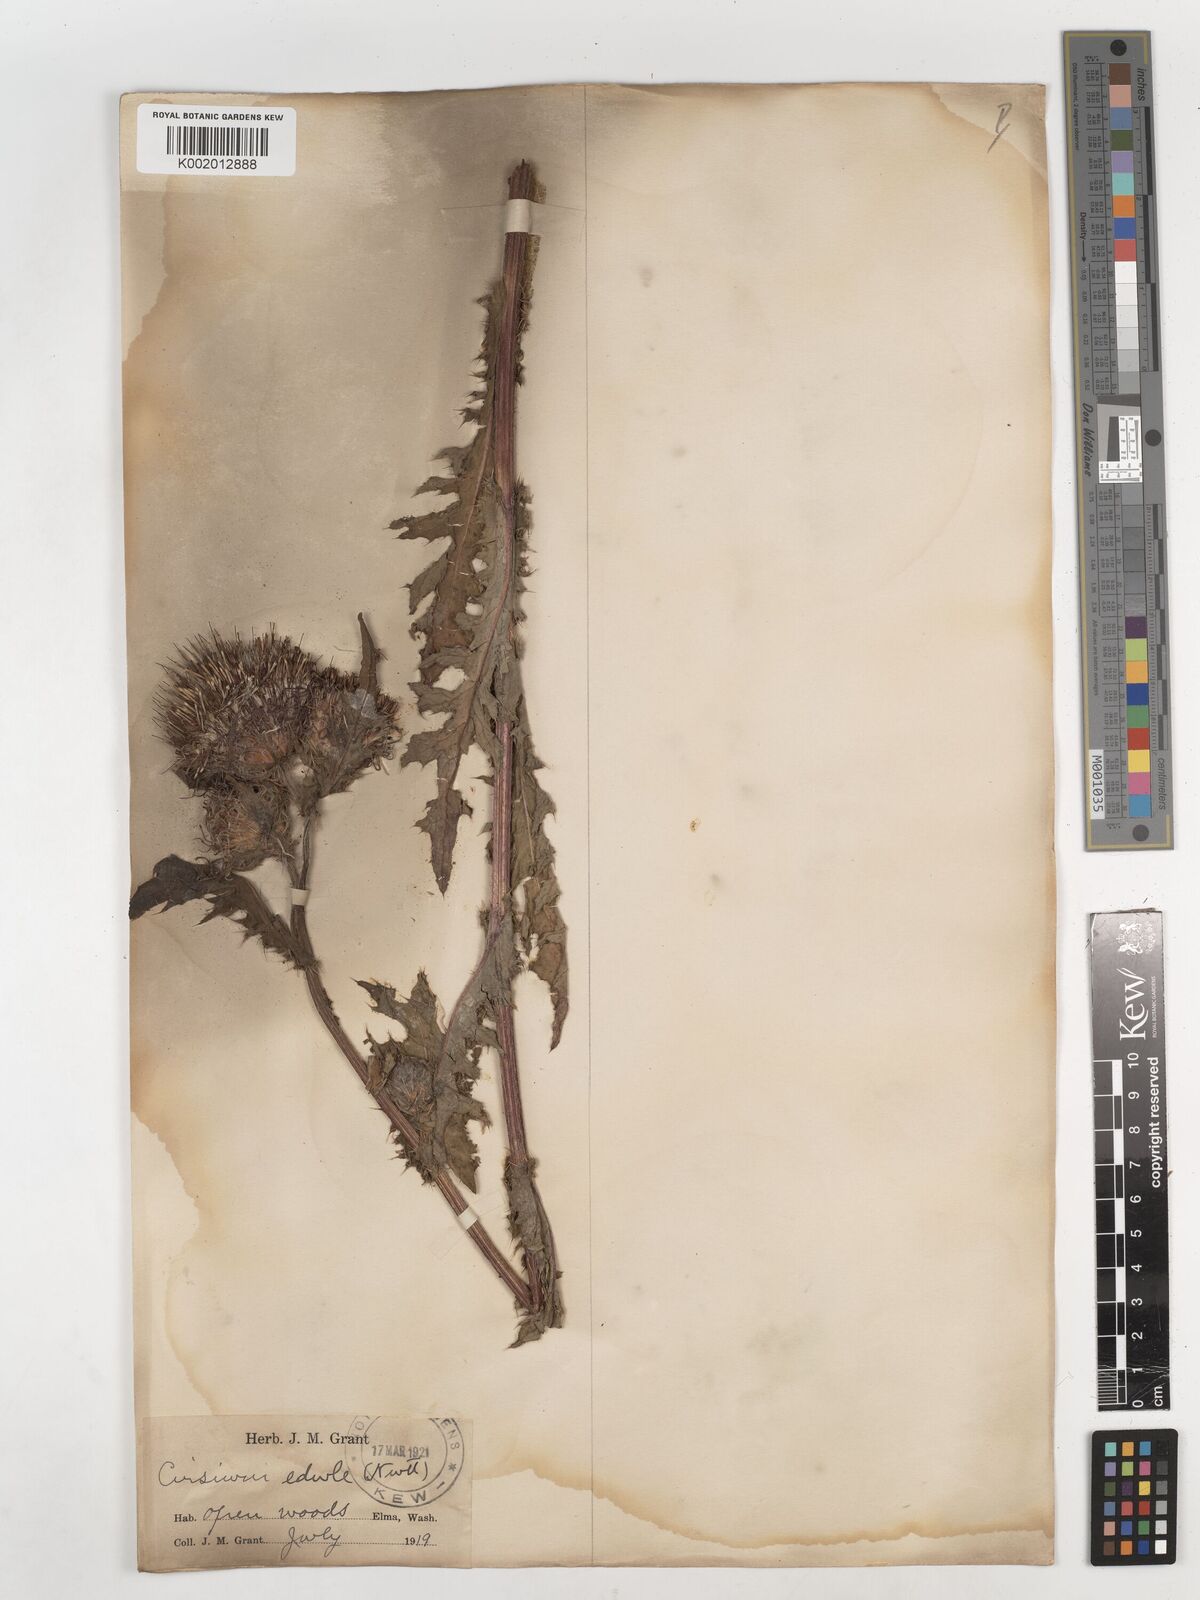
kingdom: Plantae
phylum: Tracheophyta
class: Magnoliopsida
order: Asterales
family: Asteraceae
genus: Cirsium
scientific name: Cirsium edule
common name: Indian thistle
